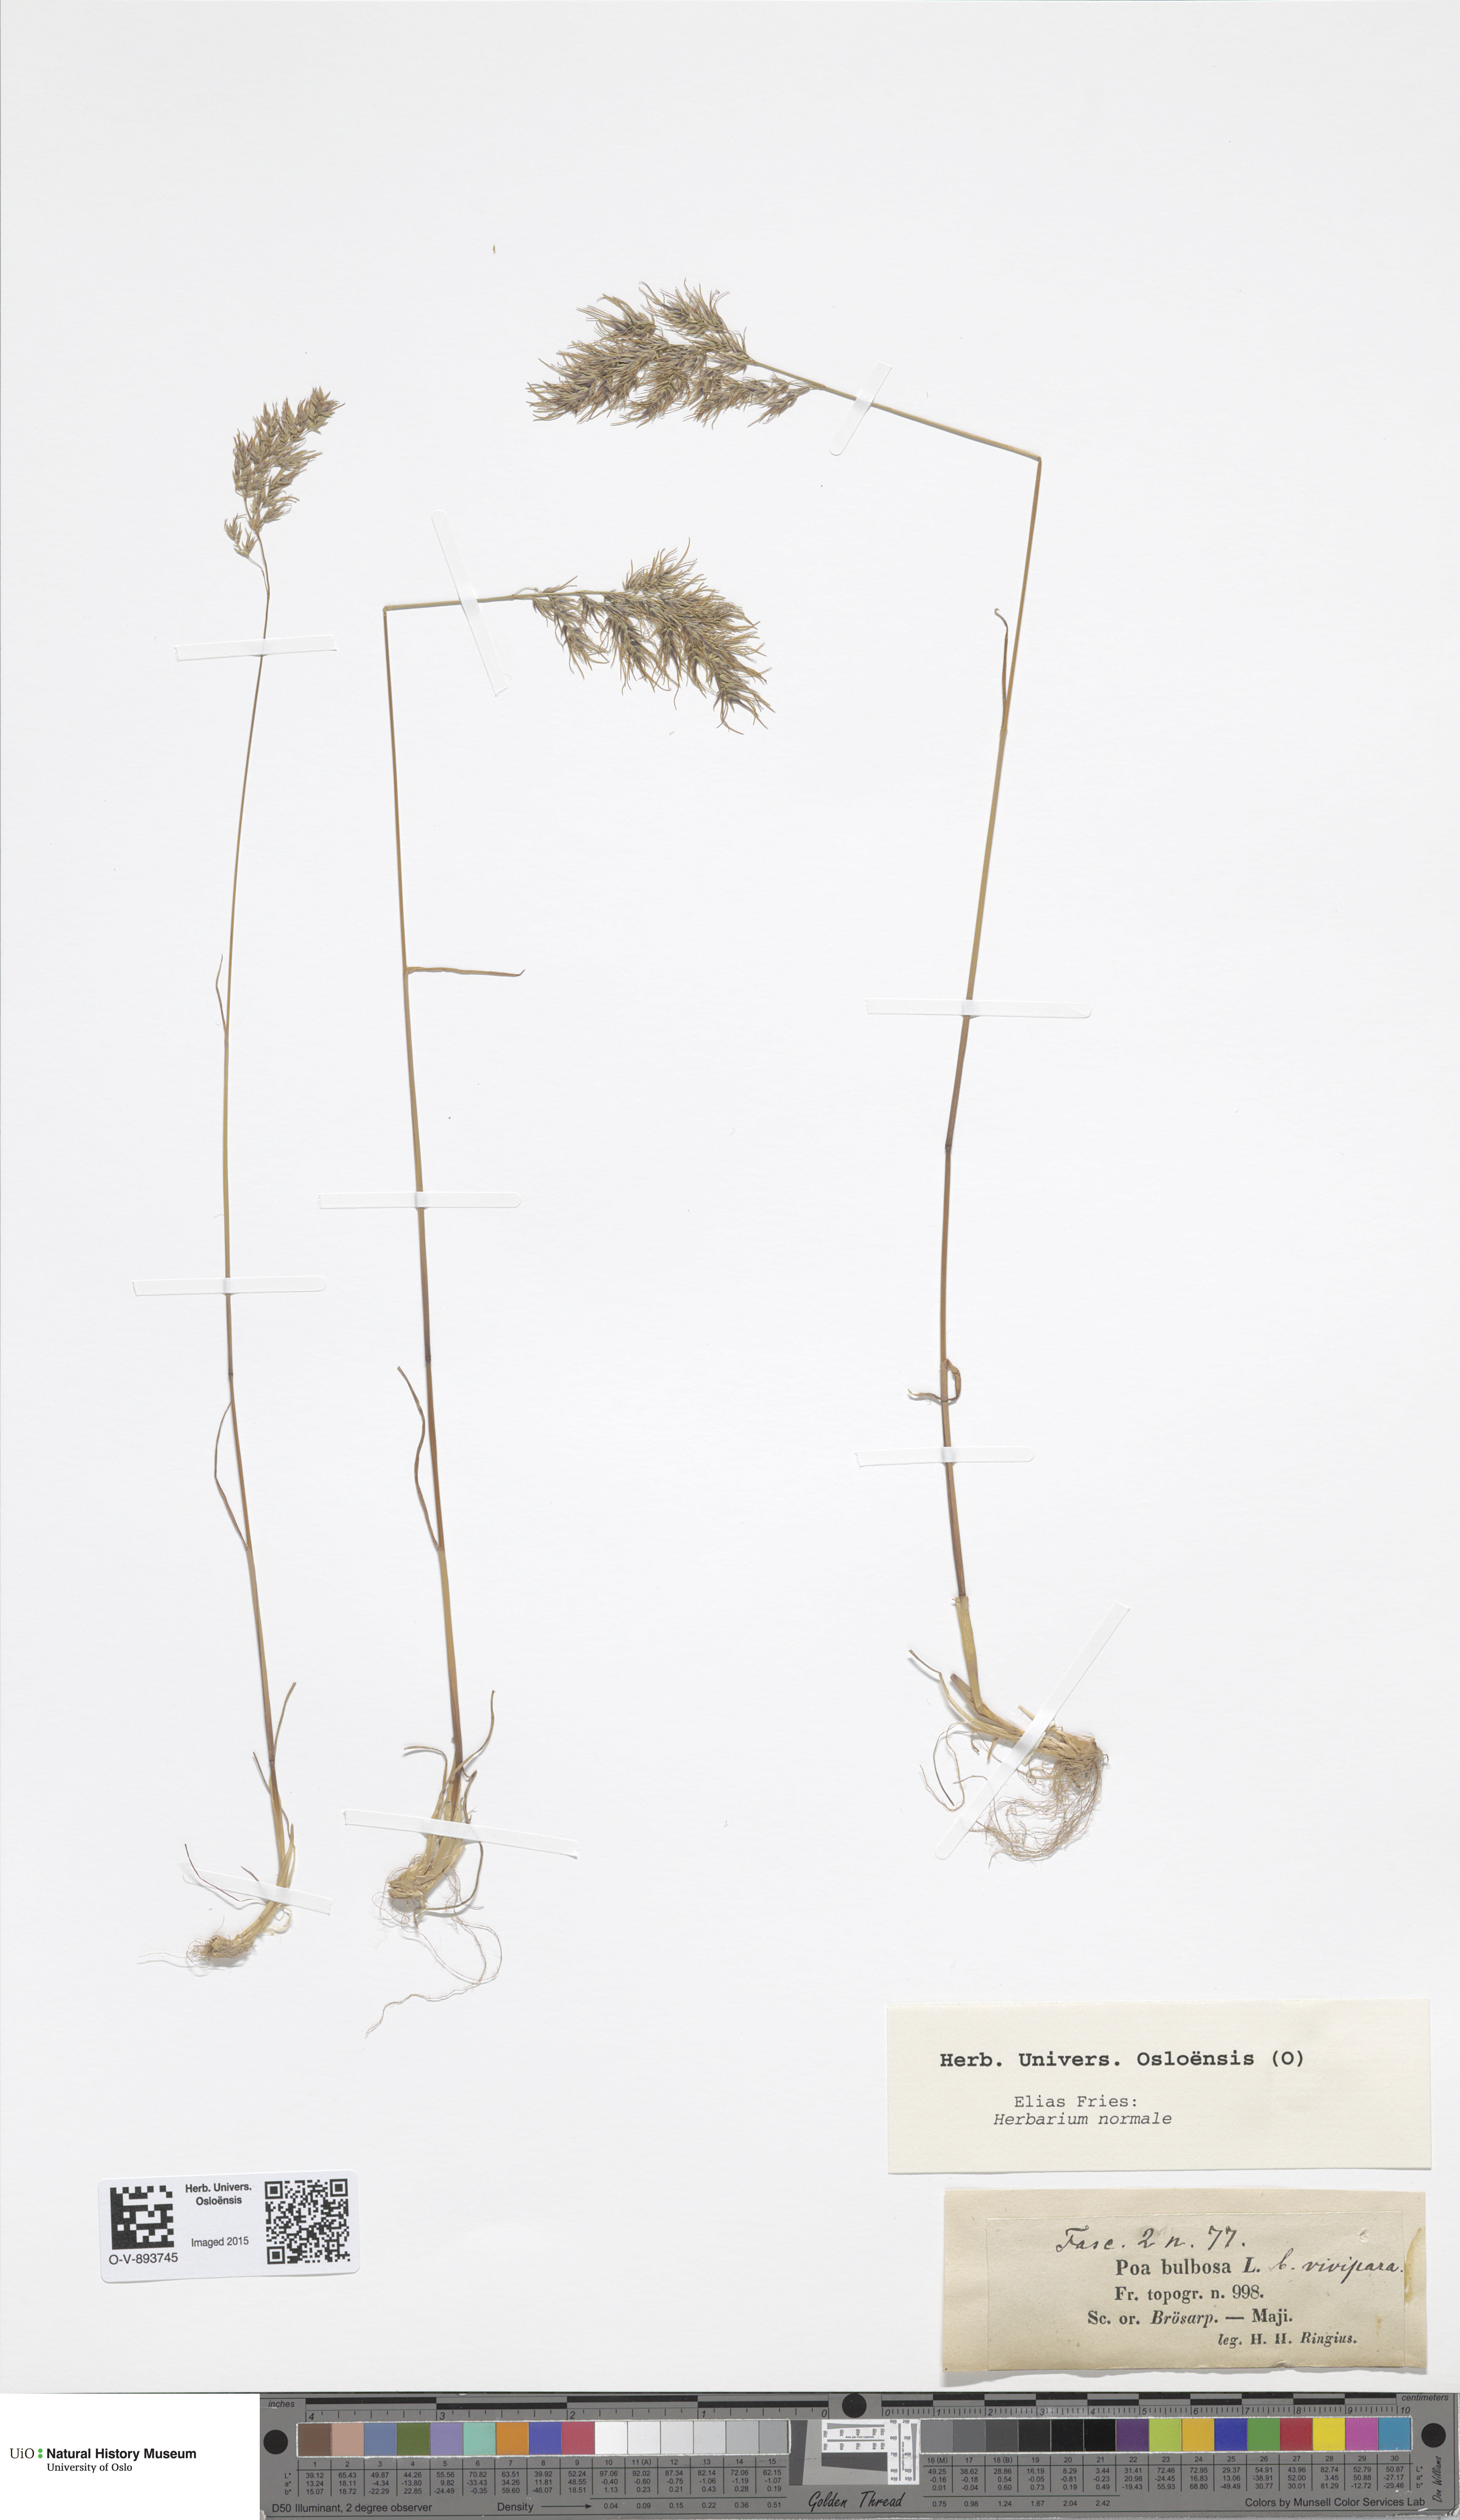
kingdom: Plantae
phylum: Tracheophyta
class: Liliopsida
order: Poales
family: Poaceae
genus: Poa
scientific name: Poa bulbosa
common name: Bulbous bluegrass
